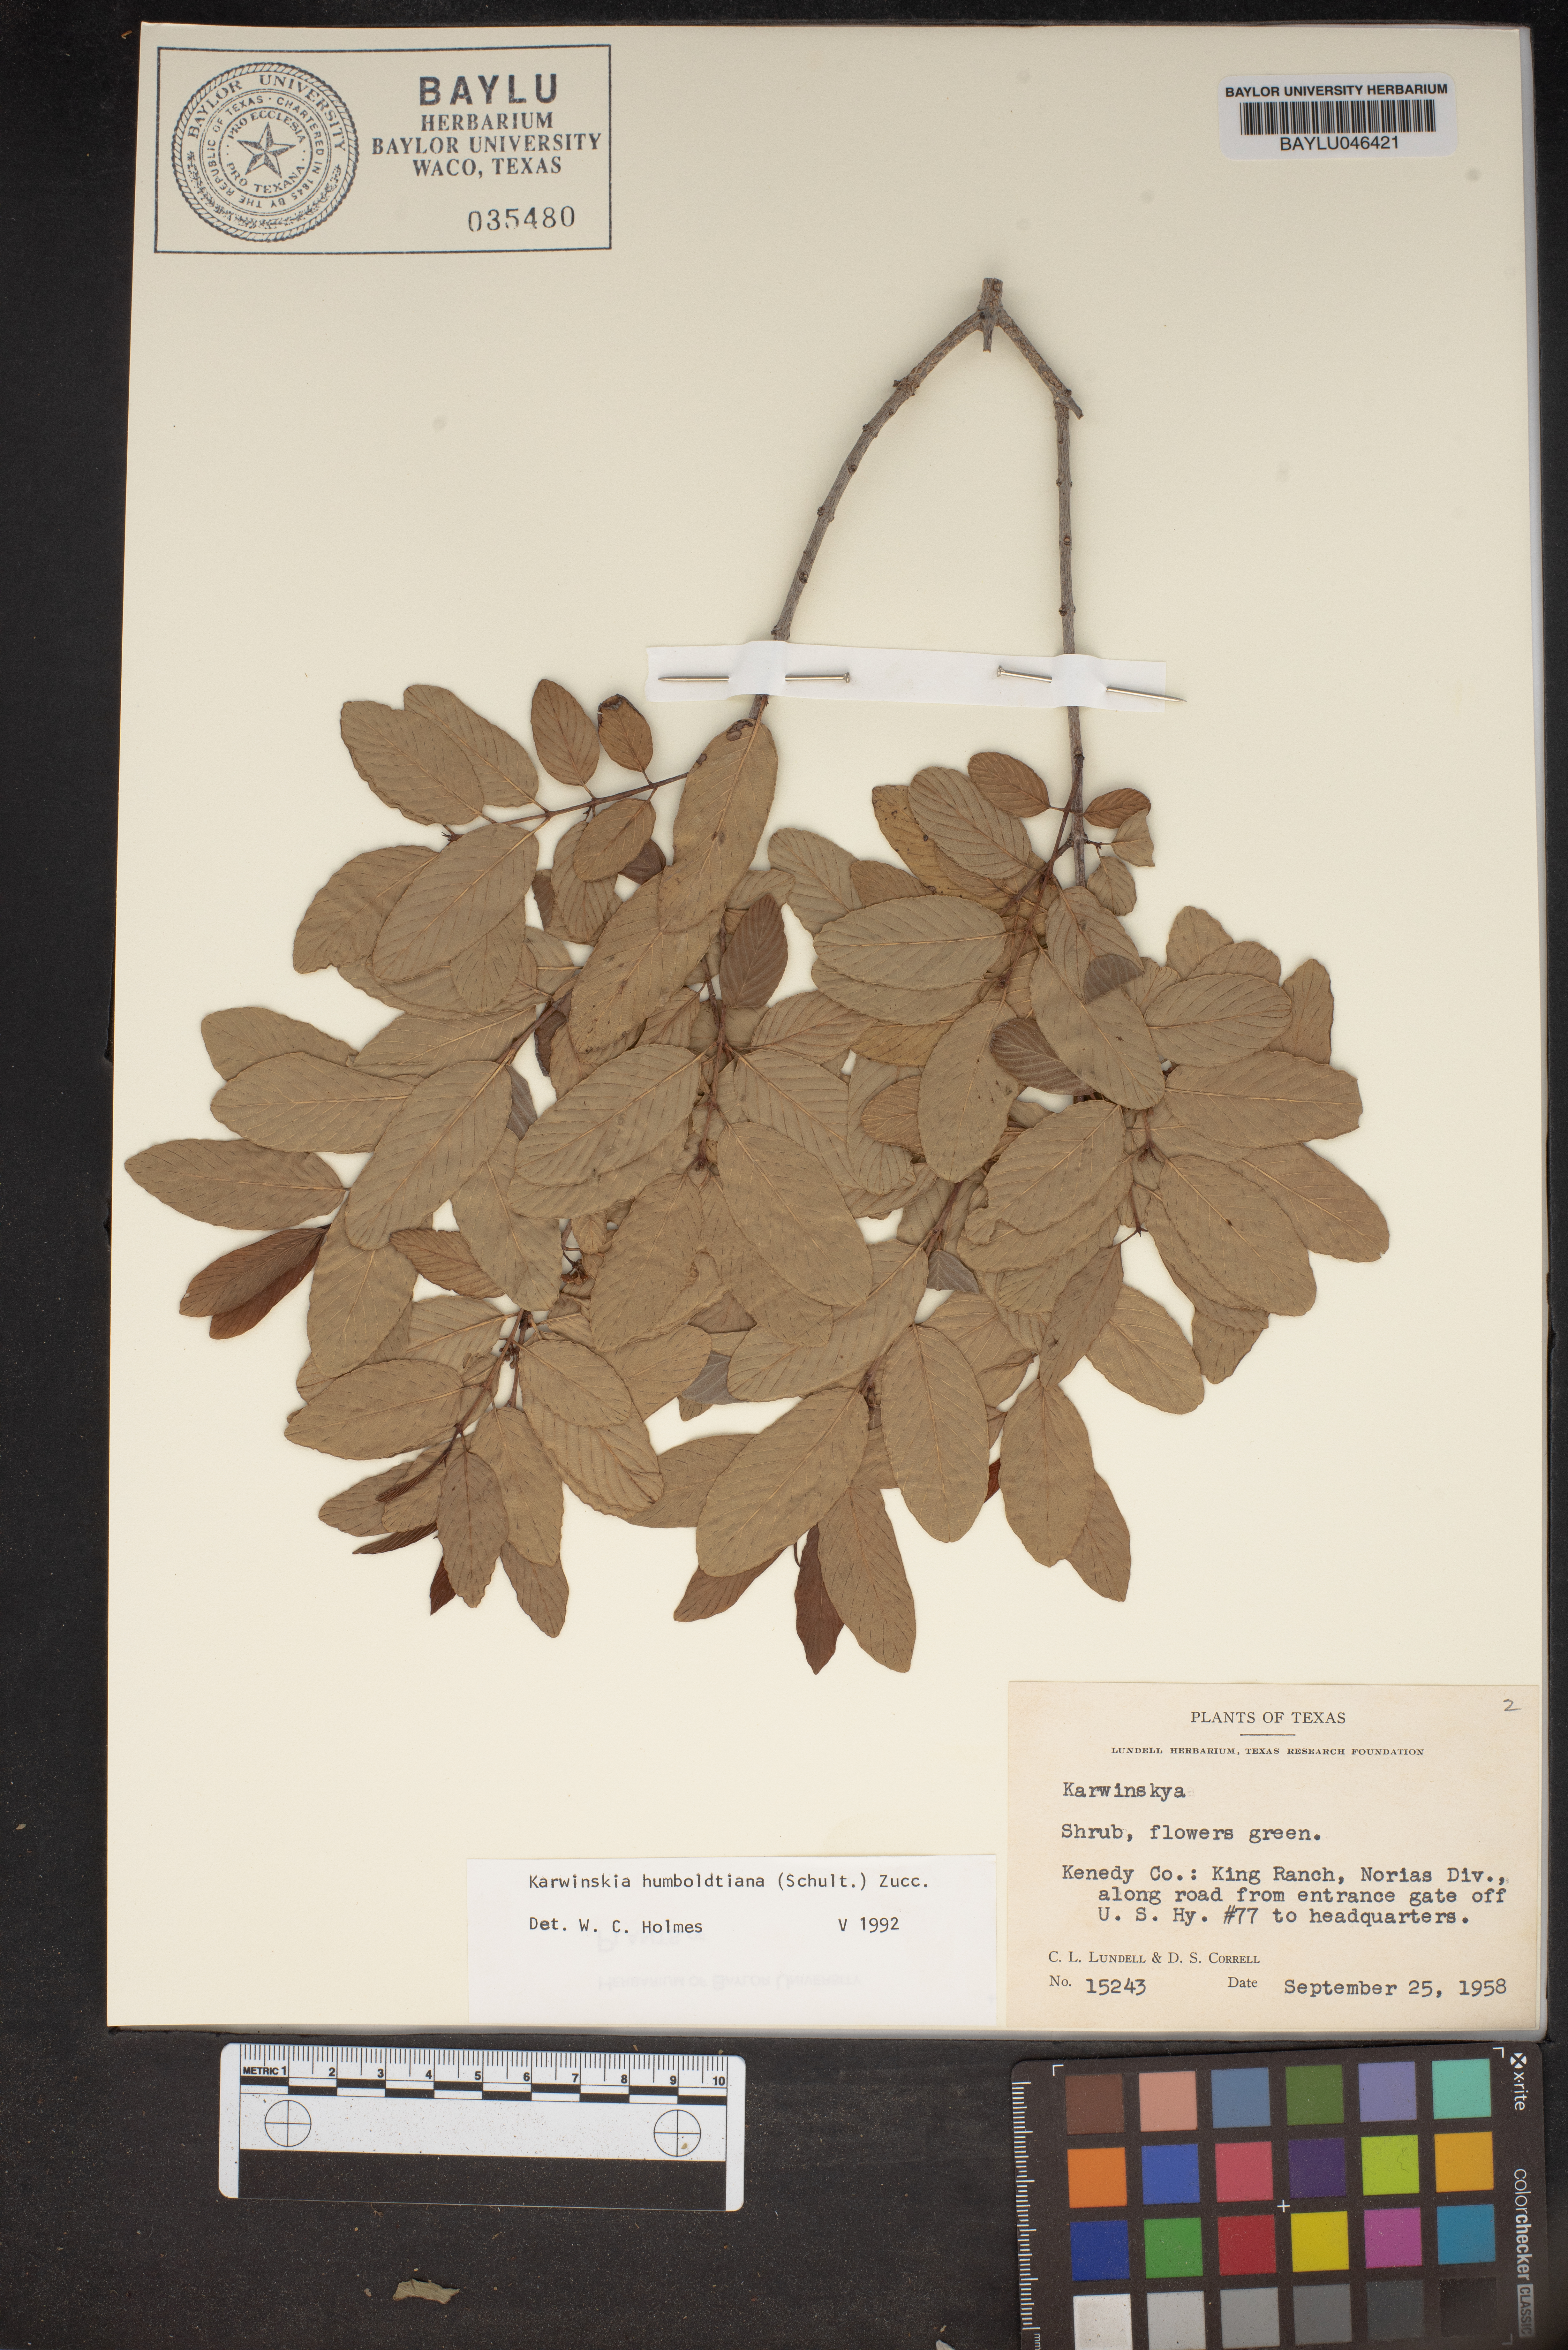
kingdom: Plantae
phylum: Tracheophyta
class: Magnoliopsida
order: Rosales
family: Rhamnaceae
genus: Karwinskia
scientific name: Karwinskia humboldtiana
